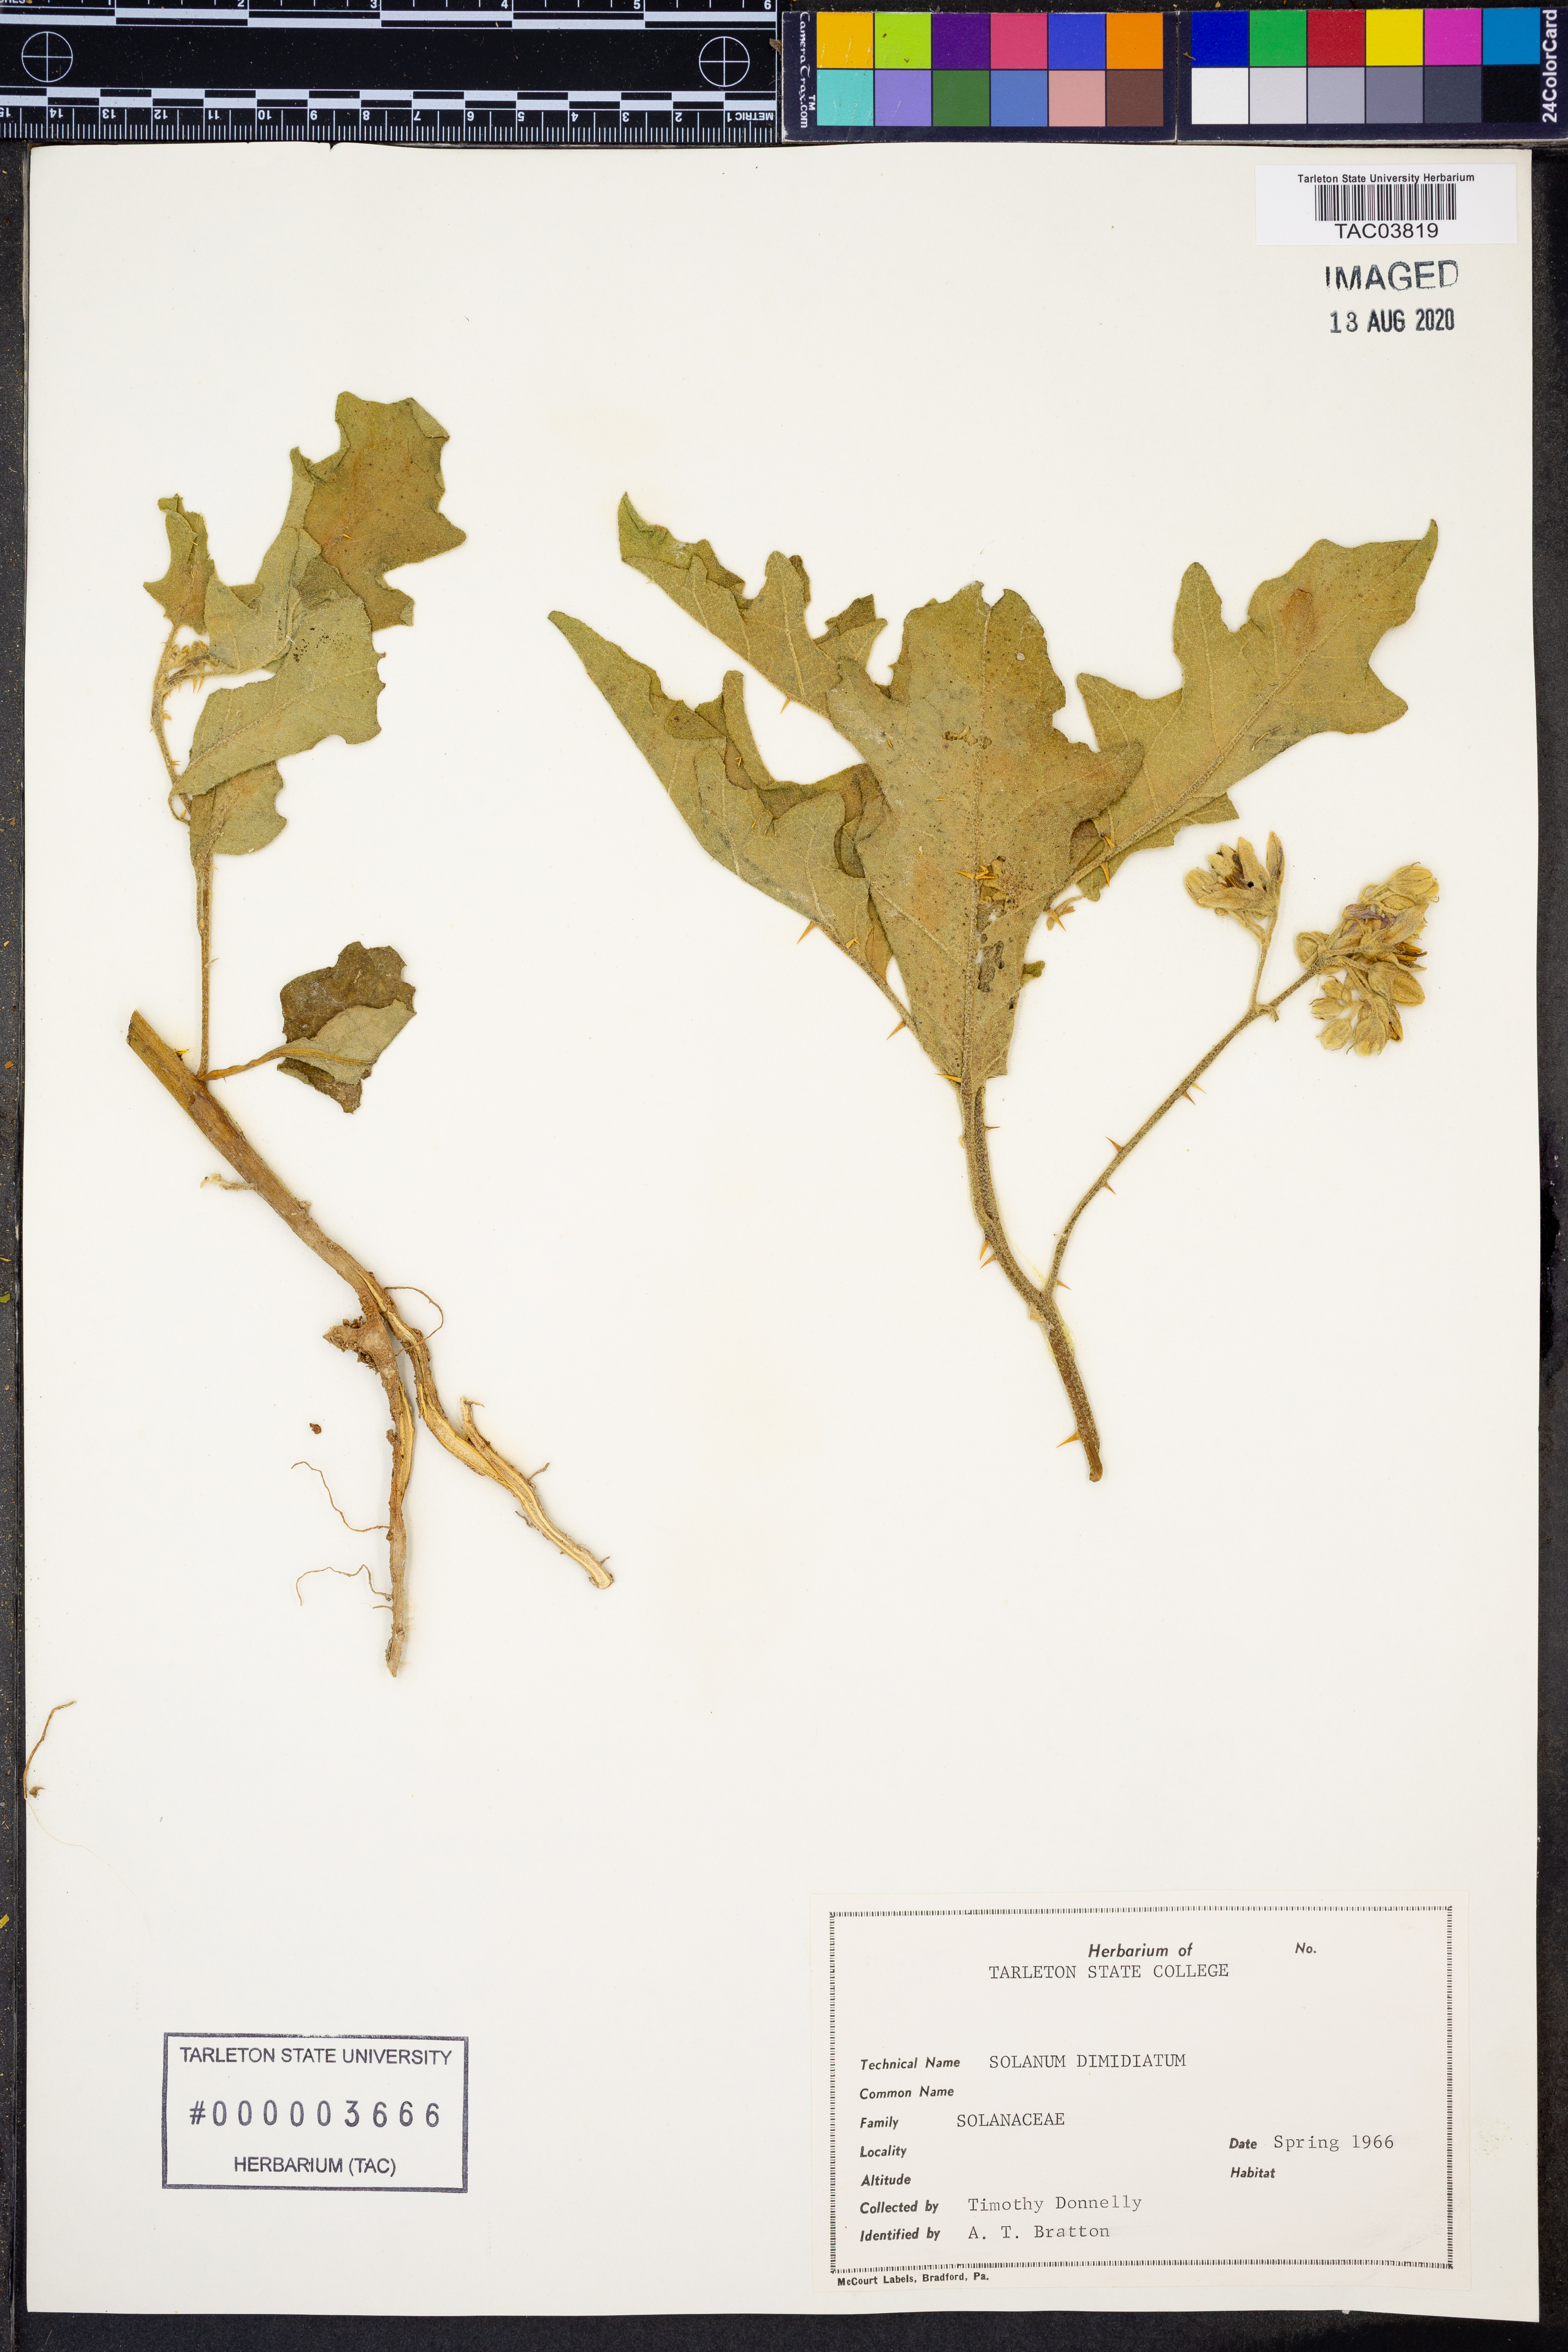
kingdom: Plantae
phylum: Tracheophyta
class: Magnoliopsida
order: Solanales
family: Solanaceae
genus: Solanum
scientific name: Solanum dimidiatum
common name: Carolina horse-nettle
